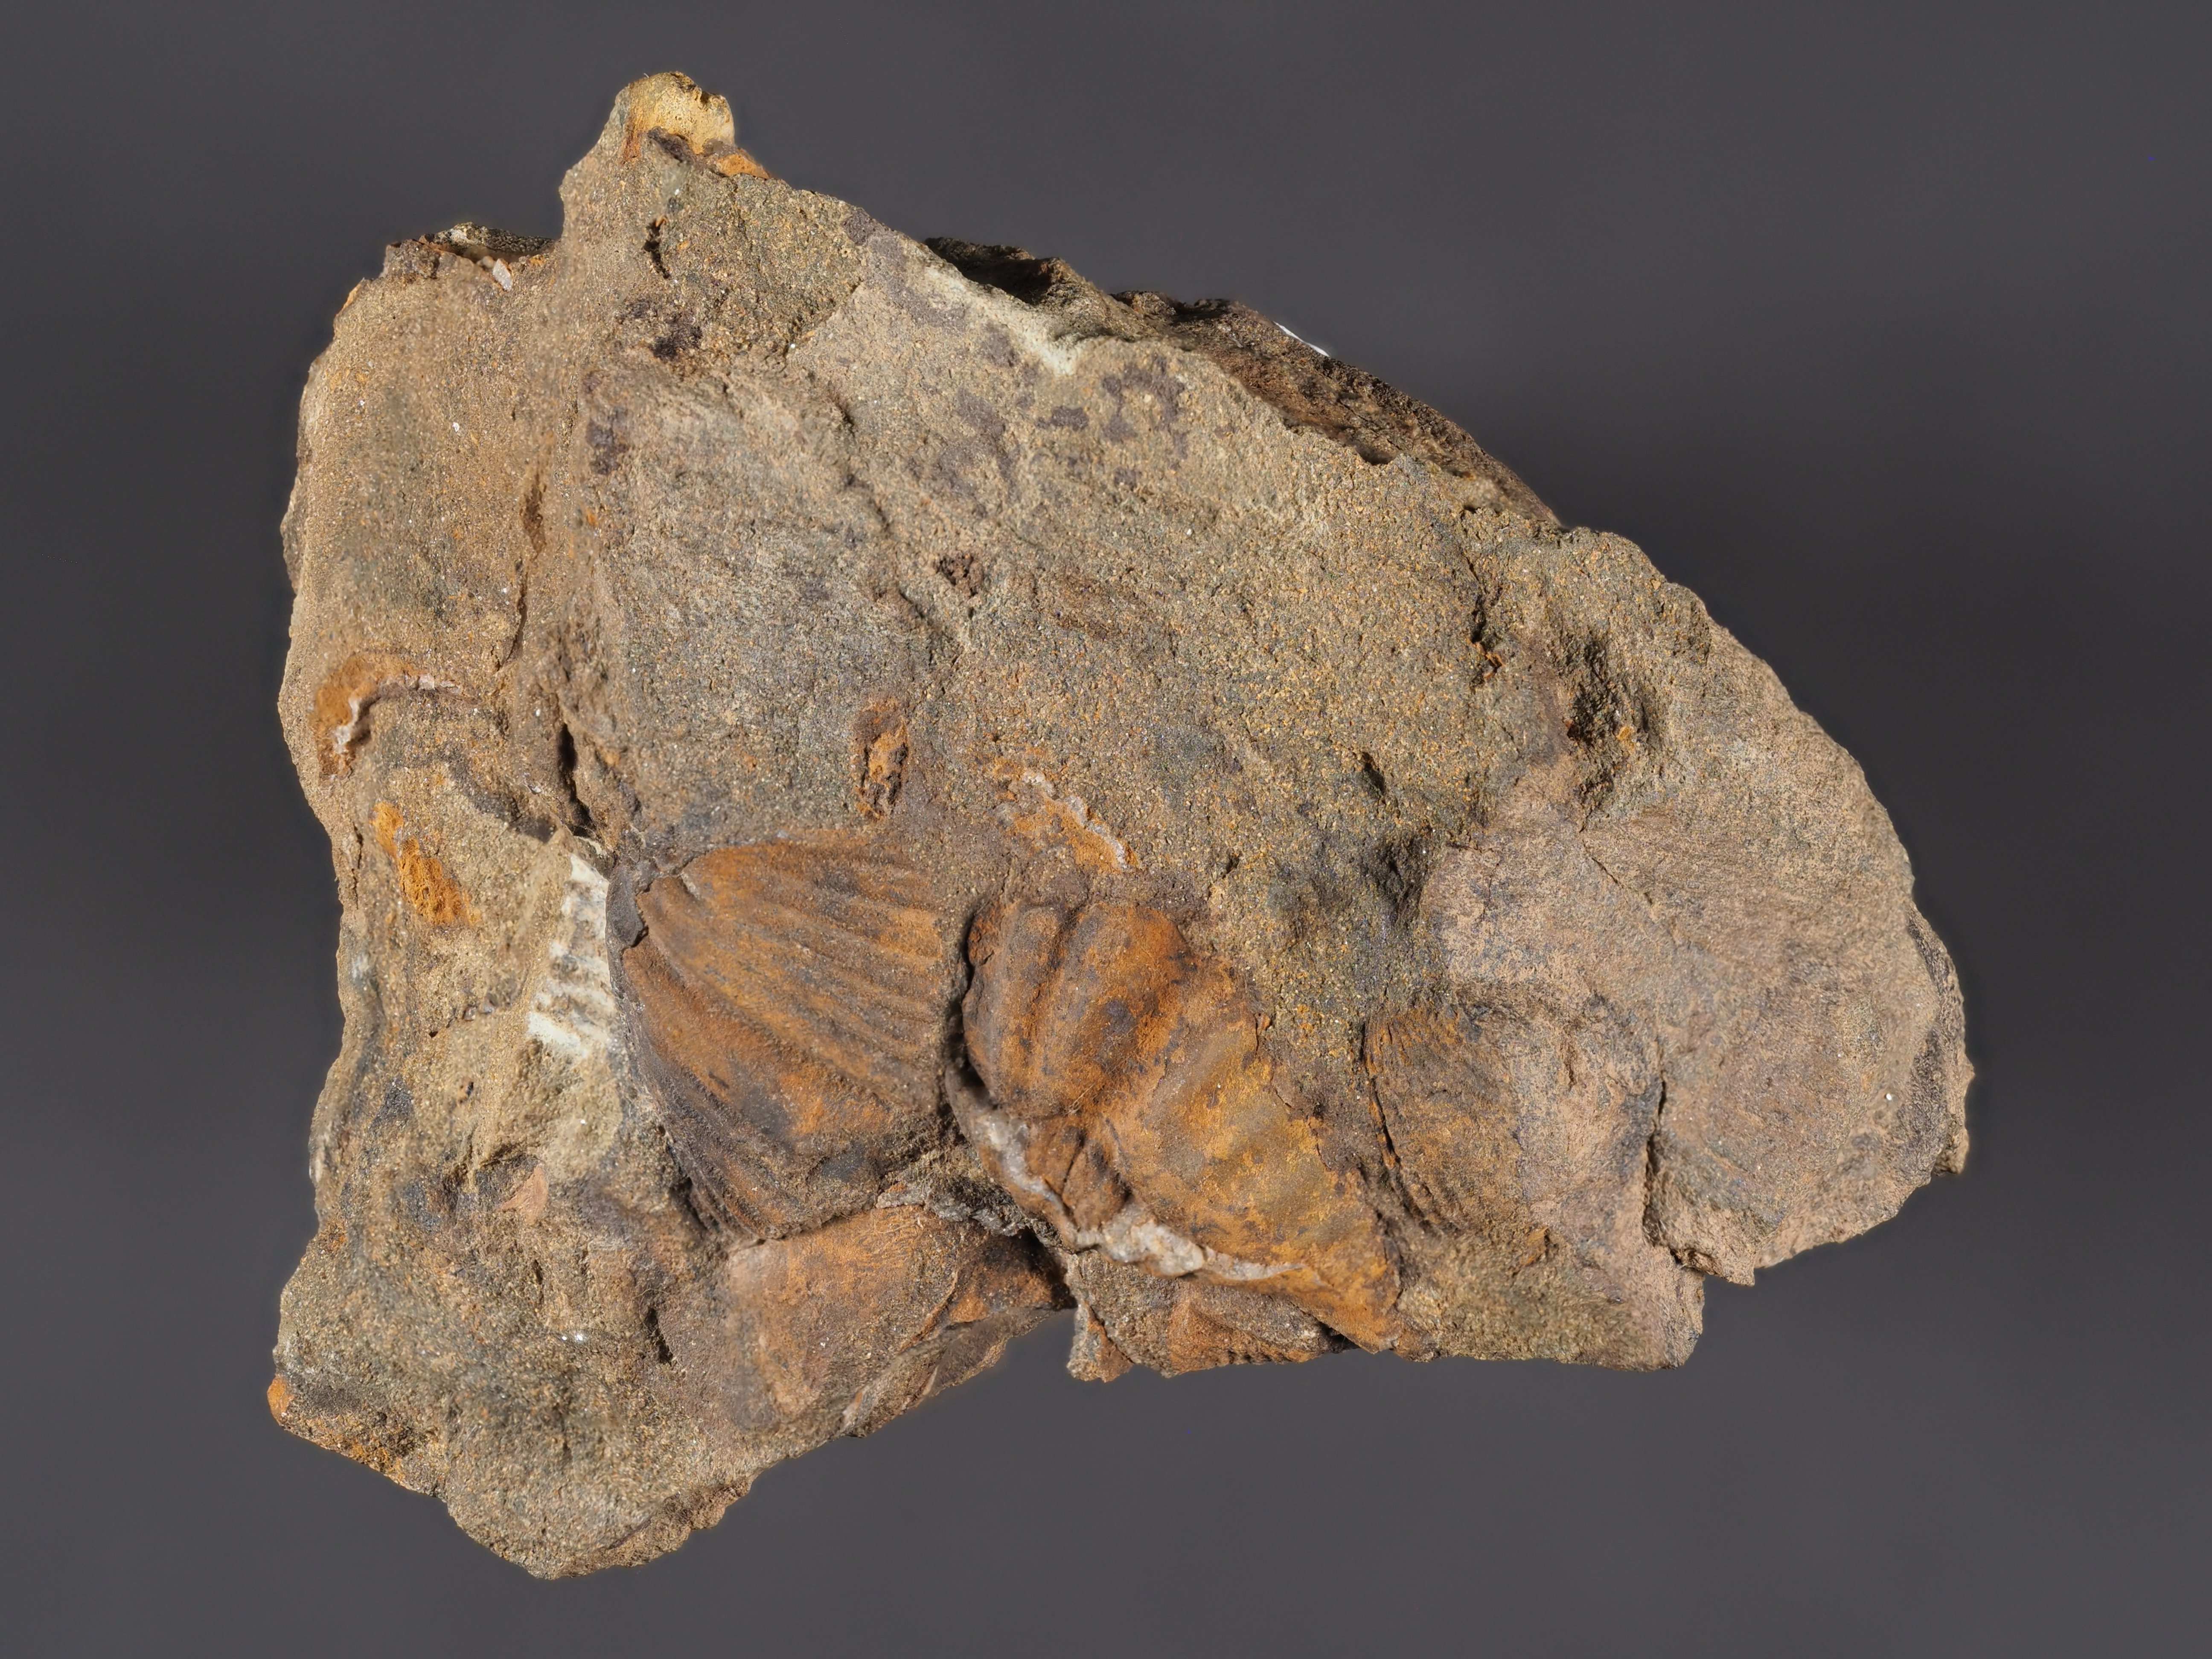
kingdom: Animalia
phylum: Brachiopoda
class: Rhynchonellata
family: Spinocyrtiidae
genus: Subcuspidella
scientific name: Subcuspidella
